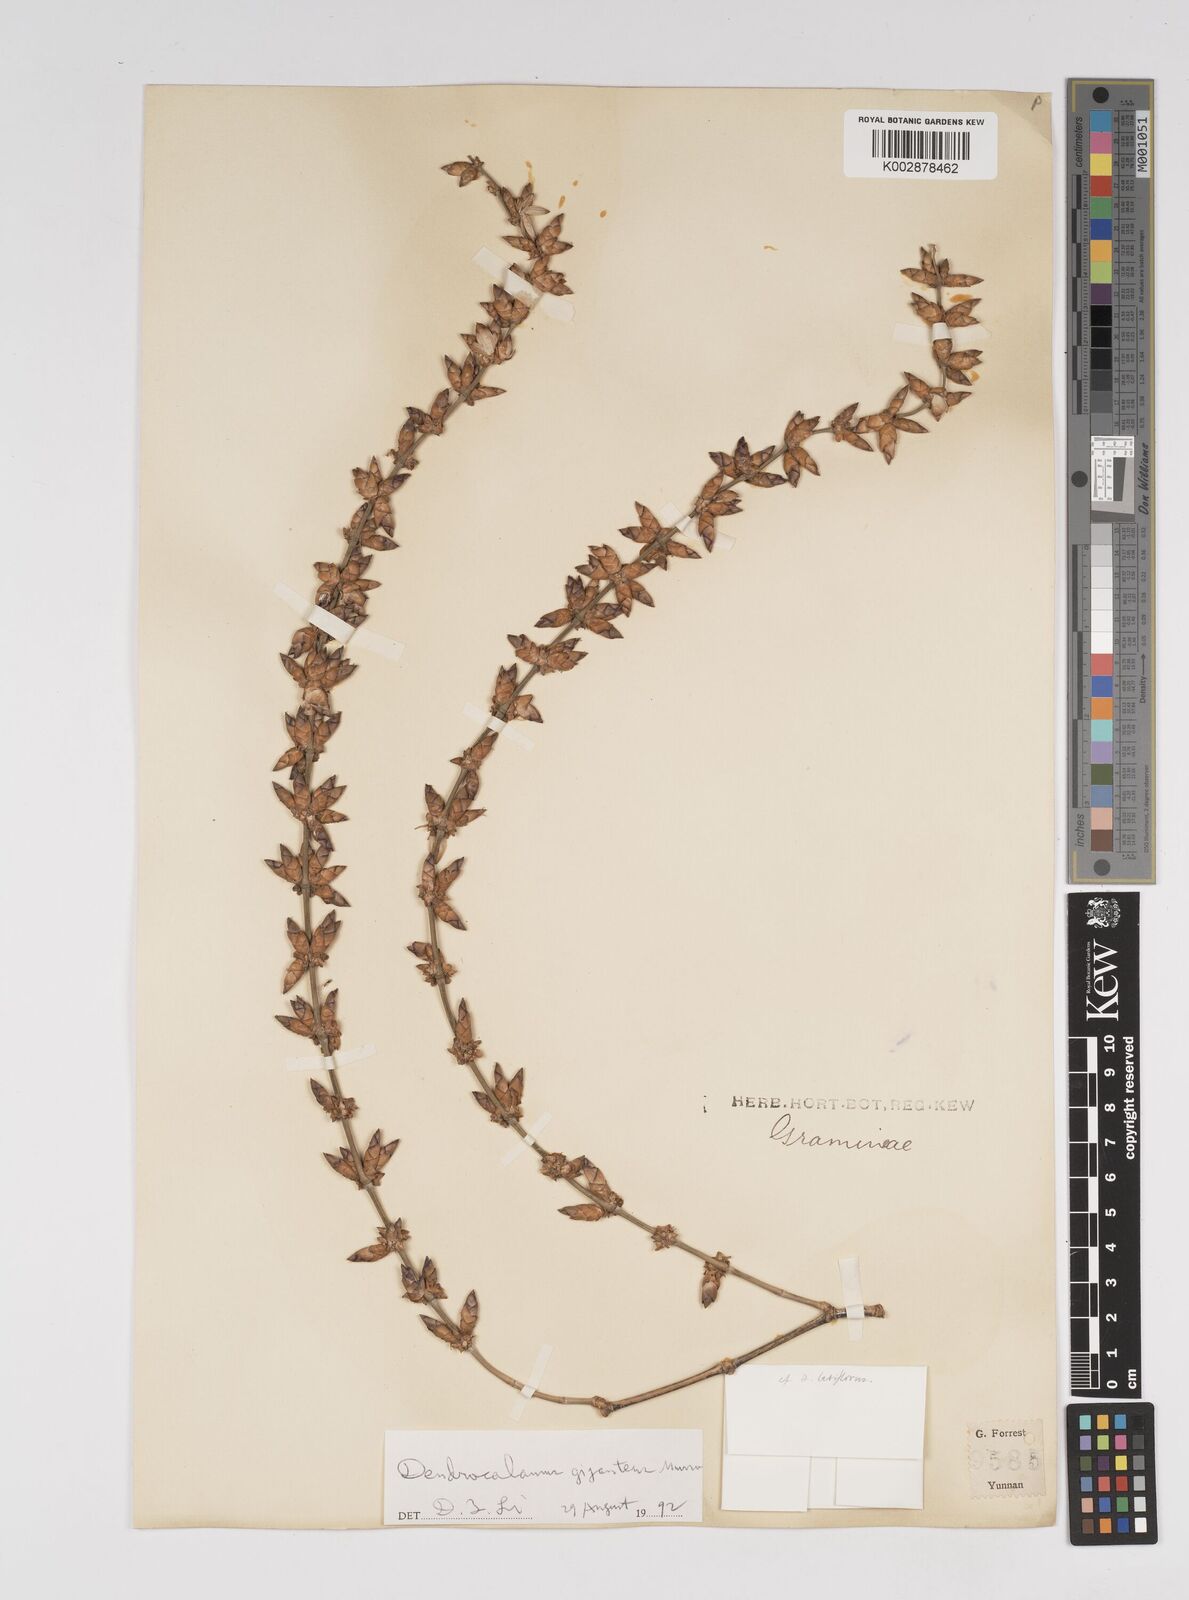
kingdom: Plantae
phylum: Tracheophyta
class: Liliopsida
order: Poales
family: Poaceae
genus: Dendrocalamus
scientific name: Dendrocalamus giganteus
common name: Giant bamboo
